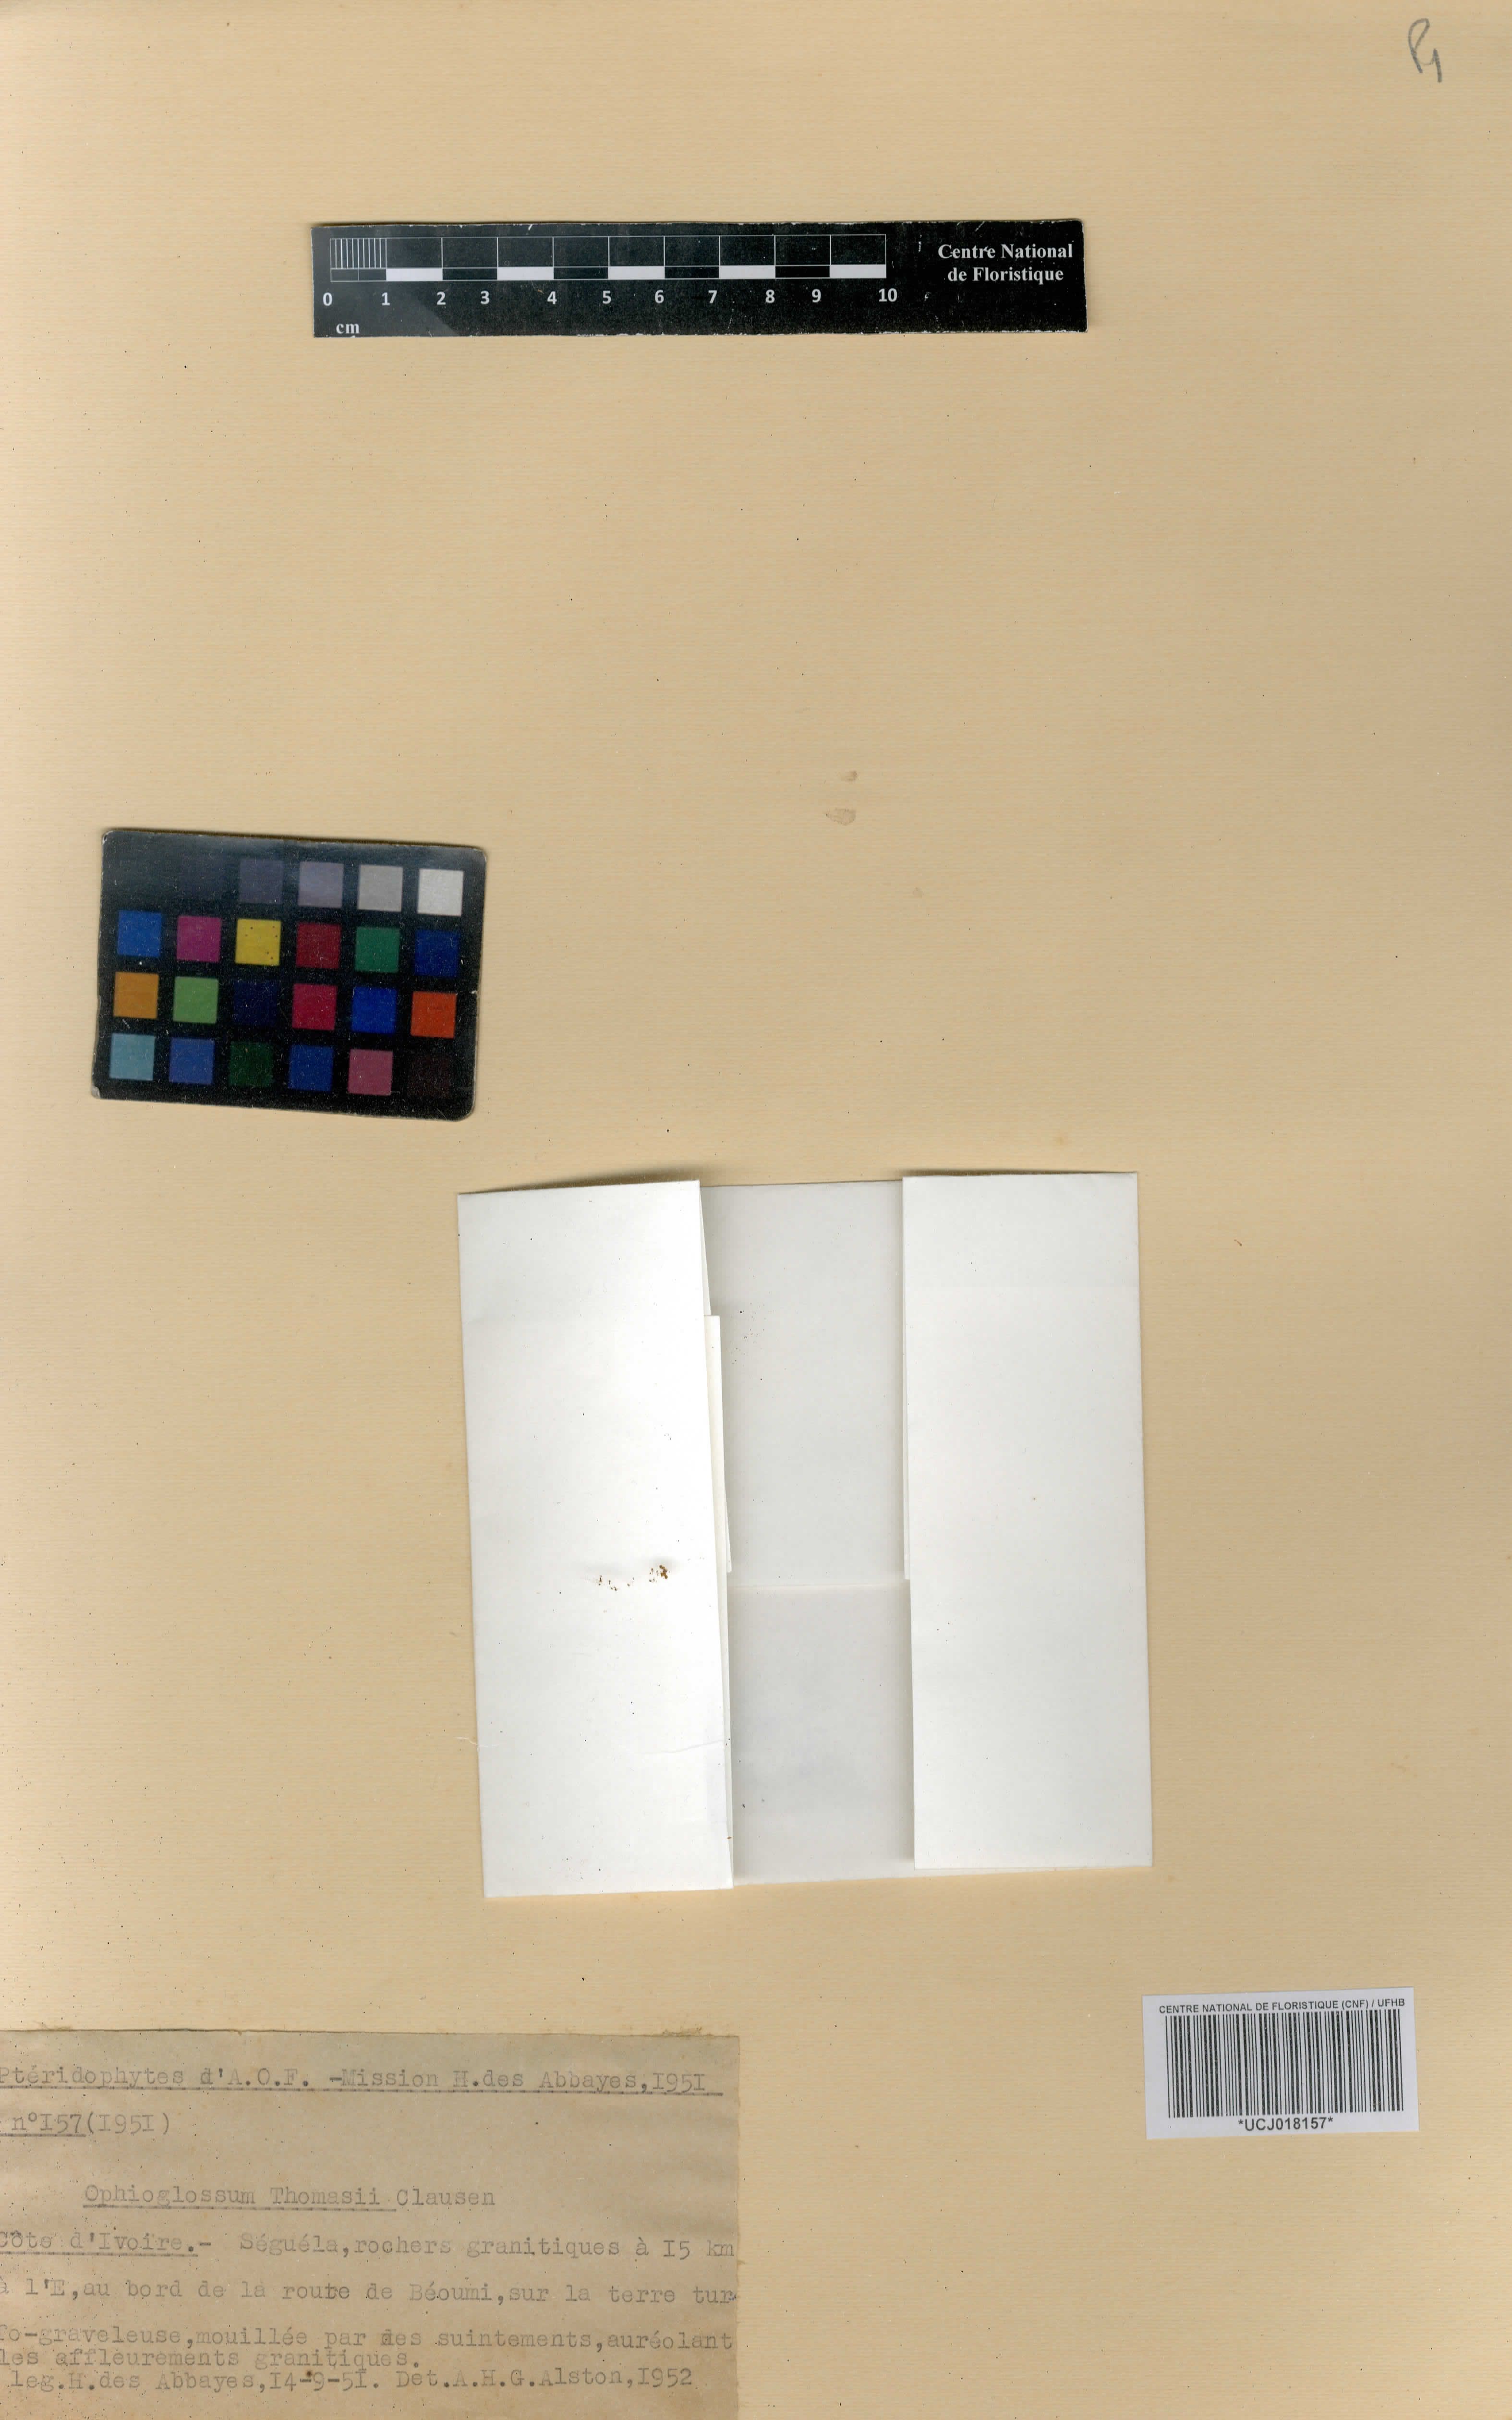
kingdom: Plantae
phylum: Tracheophyta
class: Polypodiopsida
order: Ophioglossales
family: Ophioglossaceae
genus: Ophioglossum
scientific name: Ophioglossum thomasii
